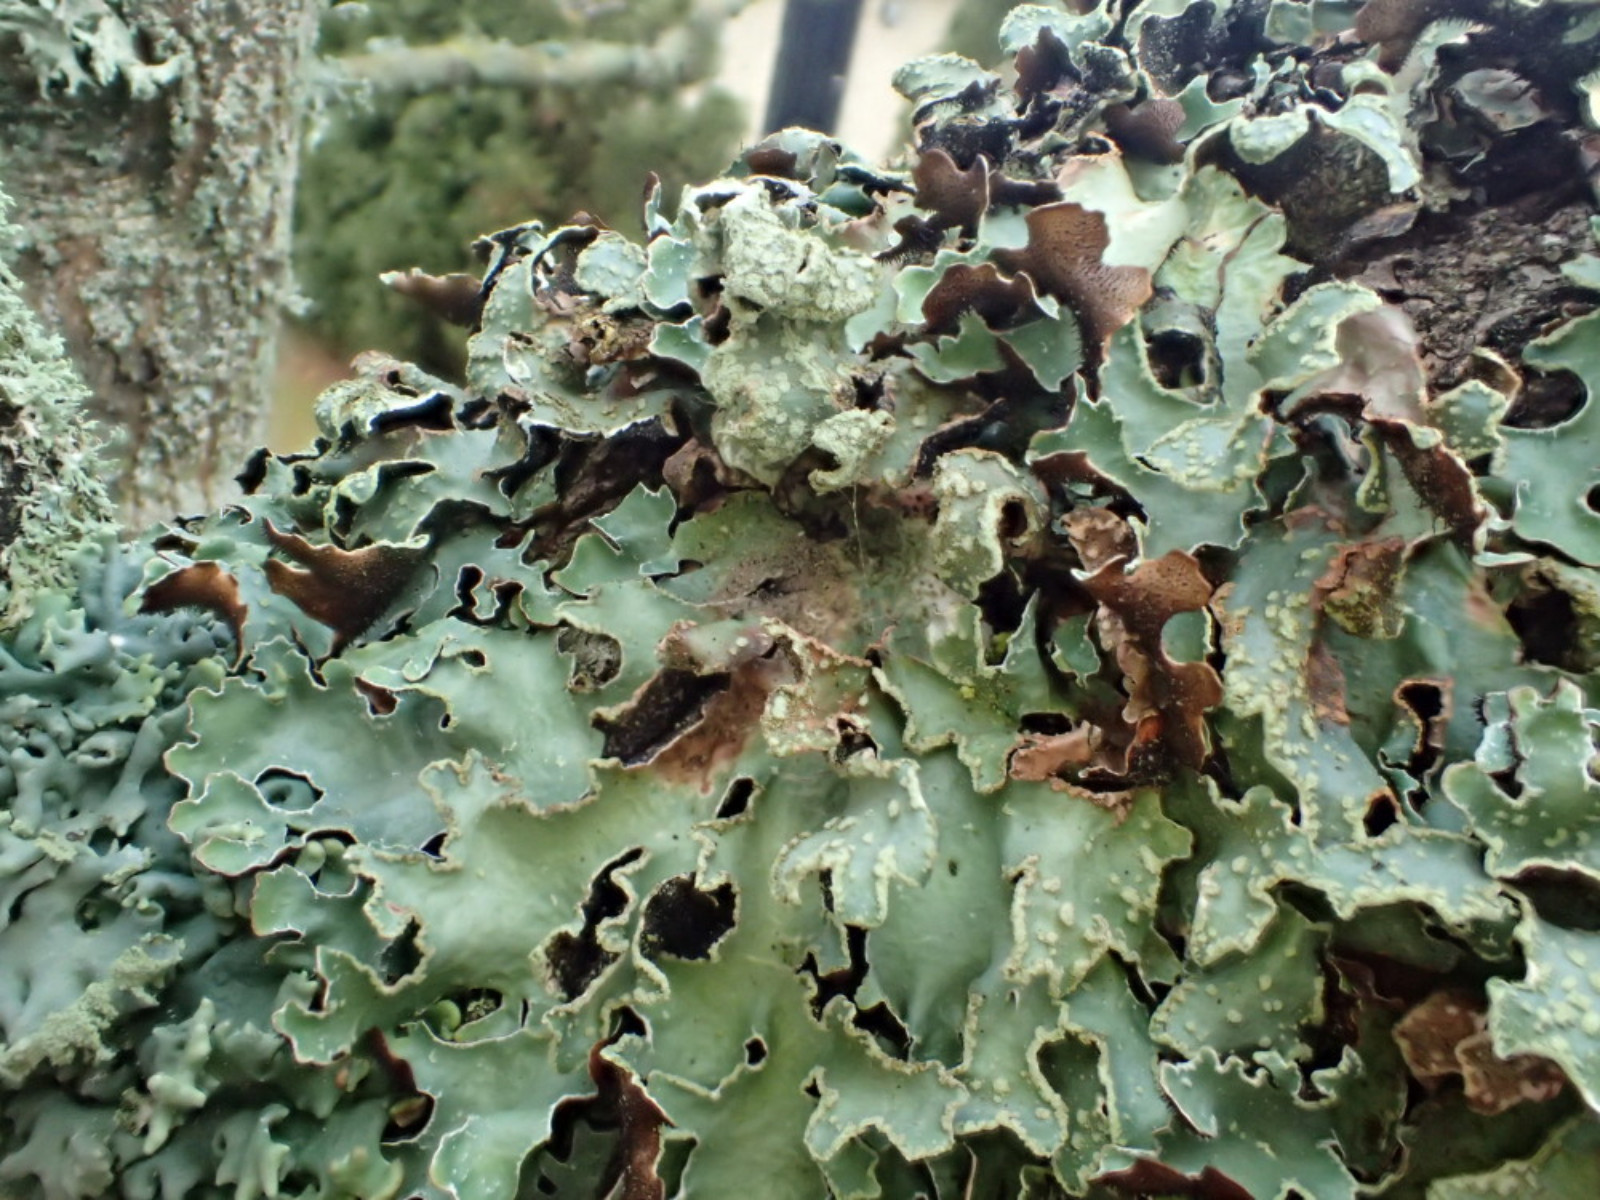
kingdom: Fungi
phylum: Ascomycota
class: Lecanoromycetes
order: Lecanorales
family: Parmeliaceae
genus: Parmelia
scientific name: Parmelia sulcata
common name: rynket skållav
